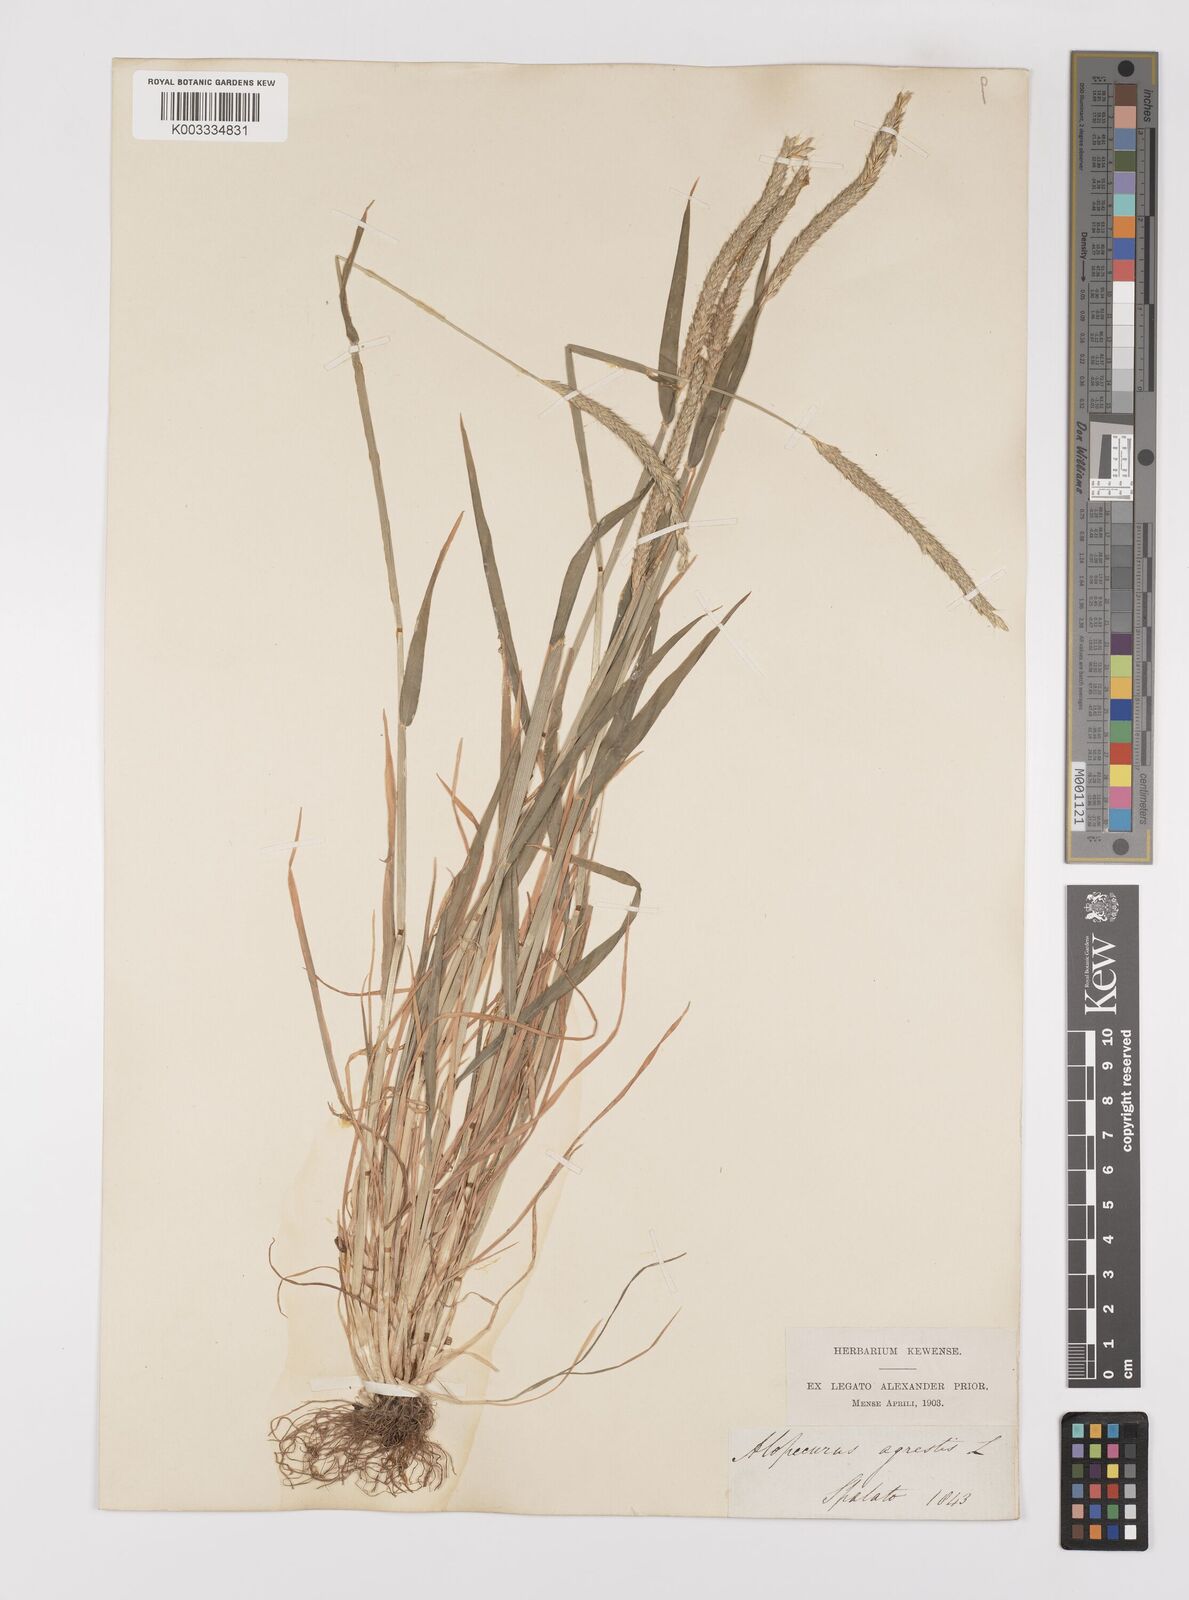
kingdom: Plantae
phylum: Tracheophyta
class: Liliopsida
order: Poales
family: Poaceae
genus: Alopecurus
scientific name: Alopecurus myosuroides
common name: Black-grass
